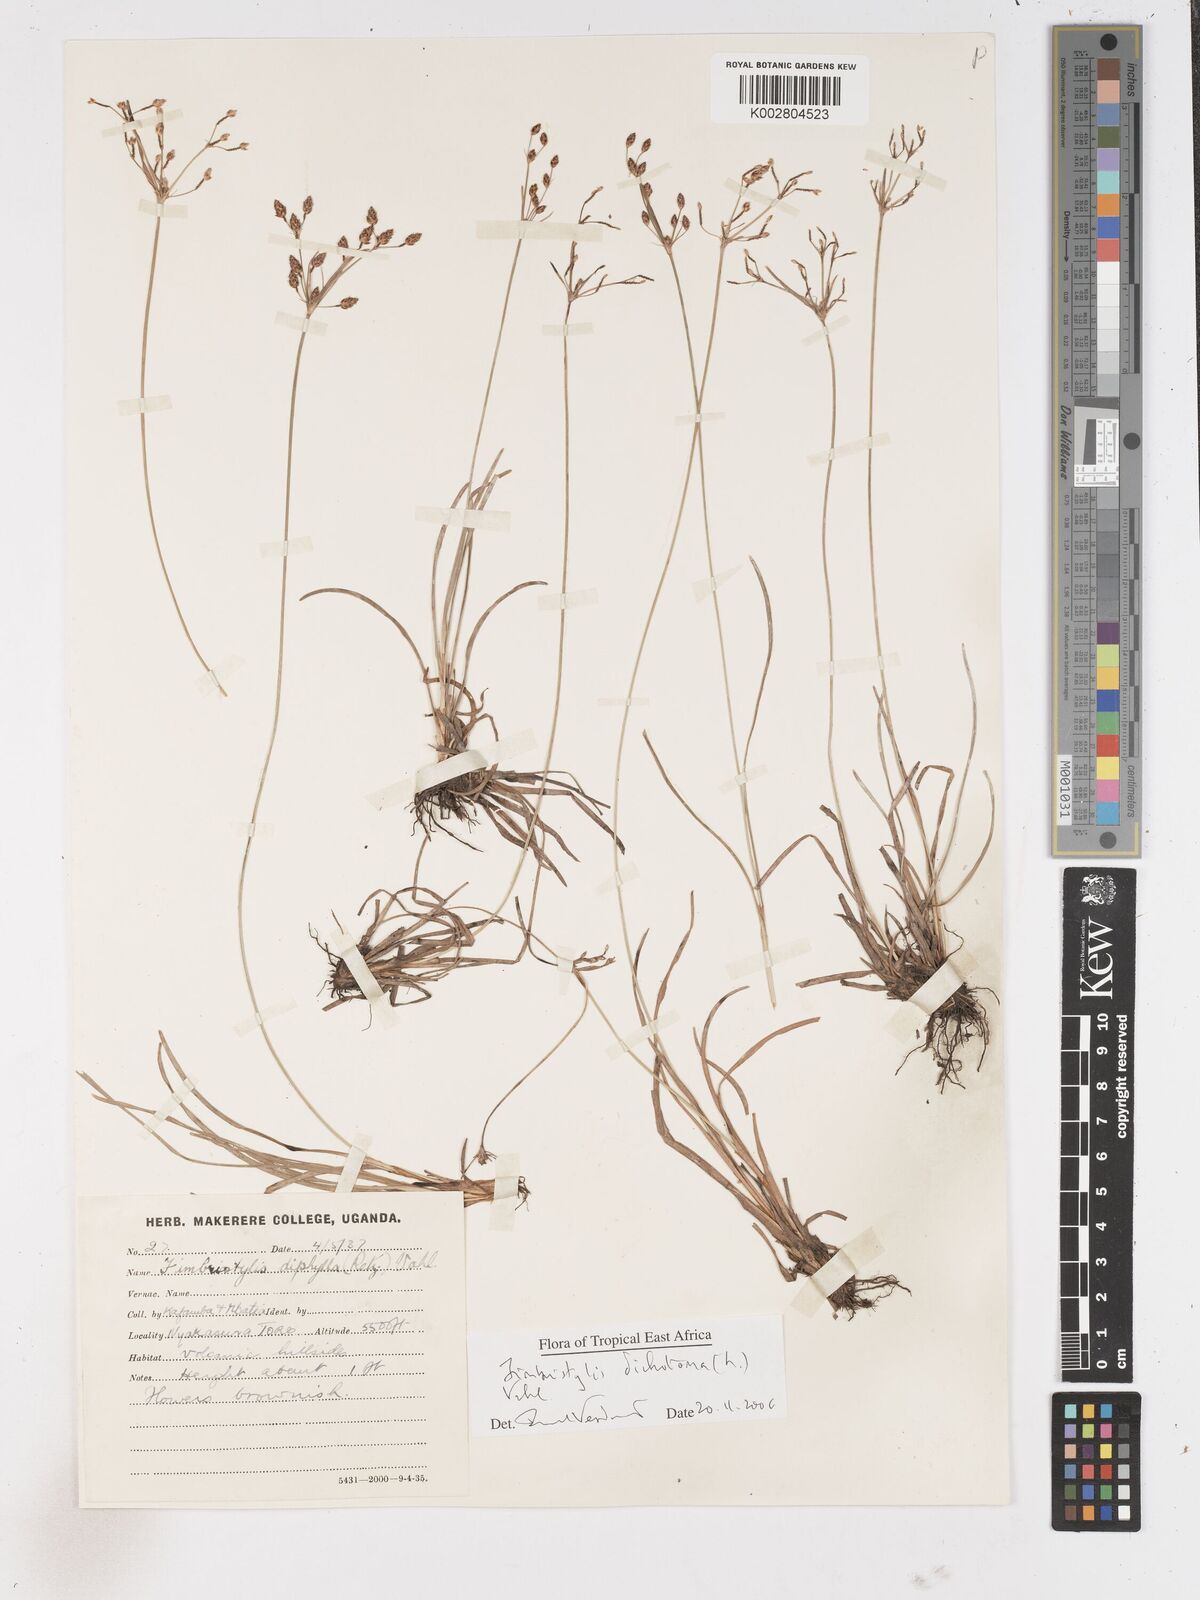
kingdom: Plantae
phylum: Tracheophyta
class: Liliopsida
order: Poales
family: Cyperaceae
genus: Fimbristylis
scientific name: Fimbristylis dichotoma
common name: Forked fimbry
